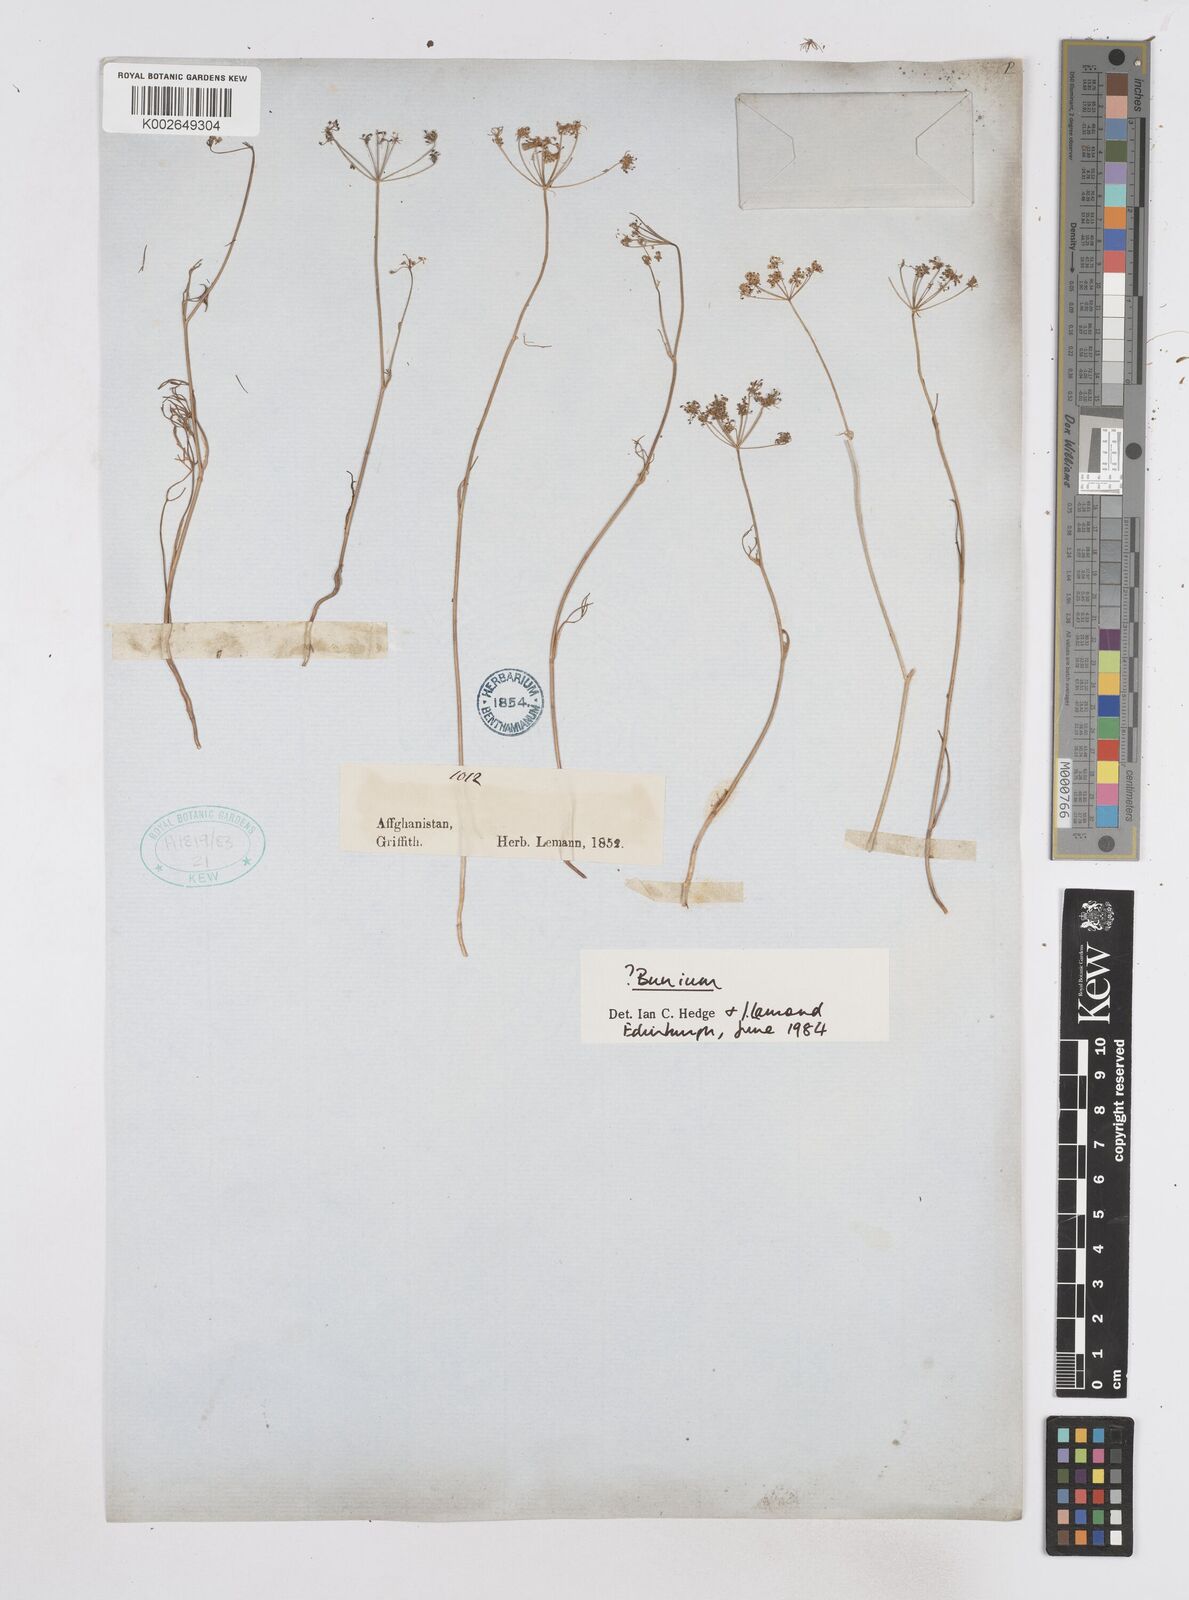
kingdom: Plantae
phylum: Tracheophyta
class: Magnoliopsida
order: Apiales
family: Apiaceae
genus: Bunium
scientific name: Bunium
